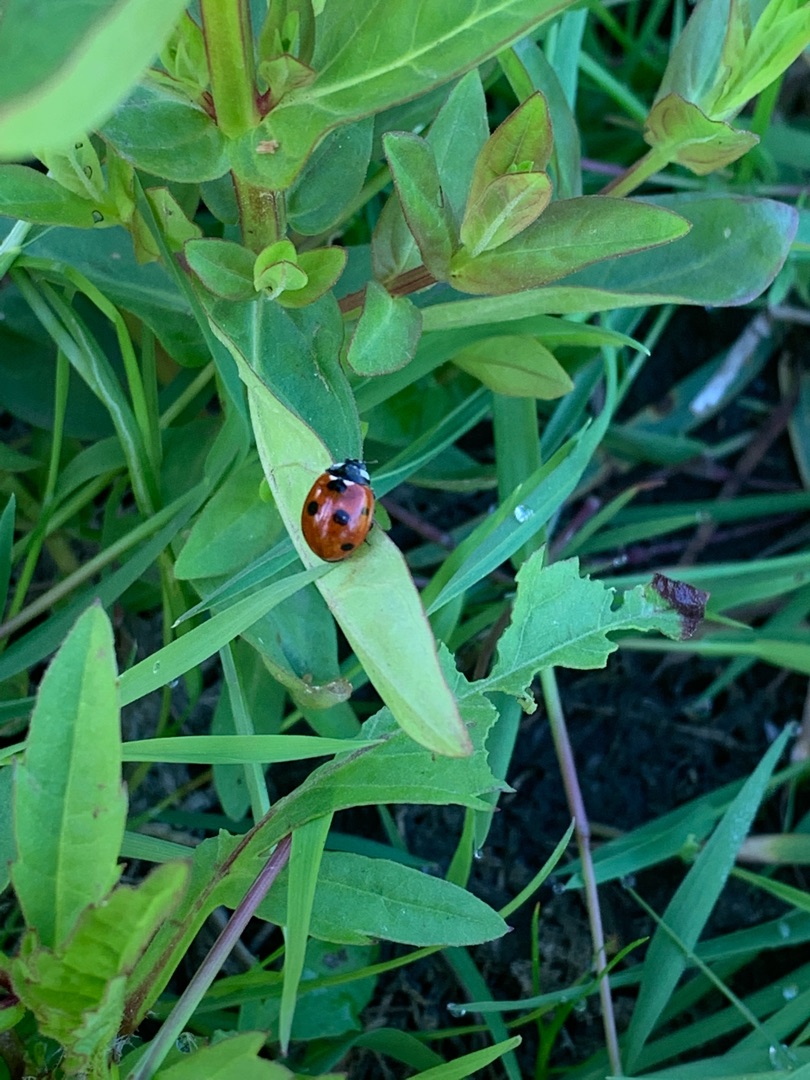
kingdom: Animalia
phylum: Arthropoda
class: Insecta
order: Coleoptera
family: Coccinellidae
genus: Coccinella
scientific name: Coccinella septempunctata
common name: Syvplettet mariehøne
